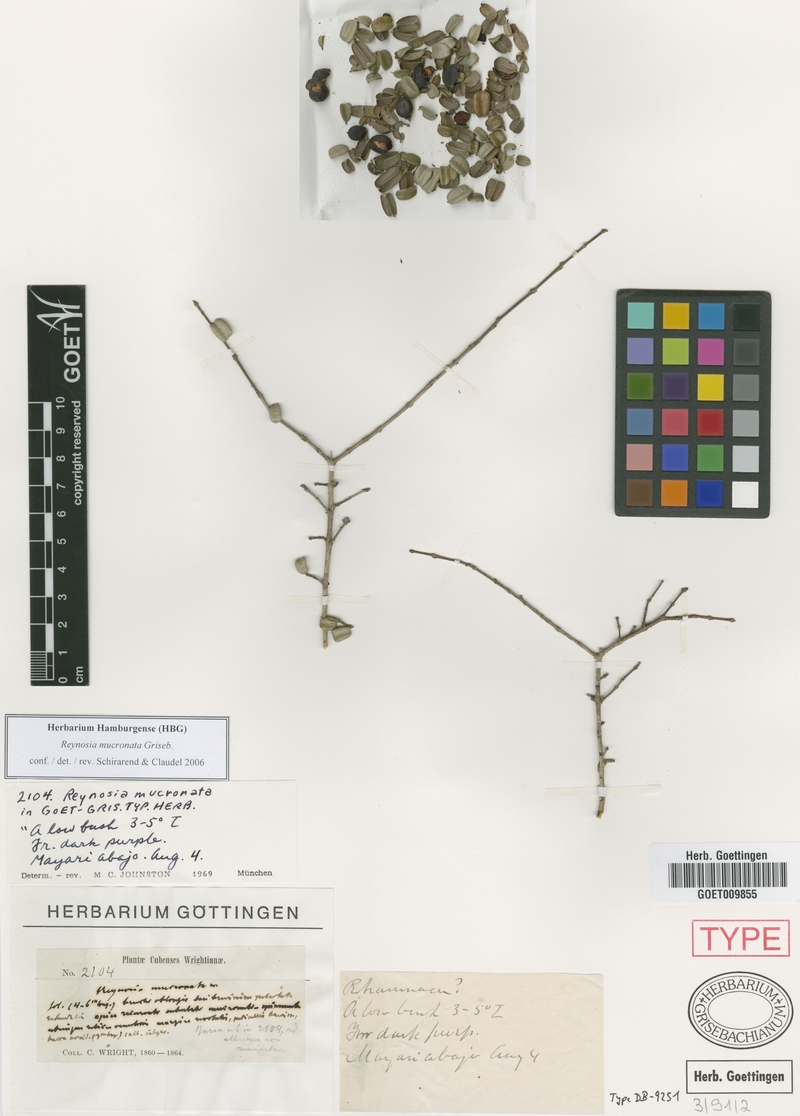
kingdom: Plantae
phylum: Tracheophyta
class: Magnoliopsida
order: Rosales
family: Rhamnaceae
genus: Reynosia
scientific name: Reynosia mucronata
